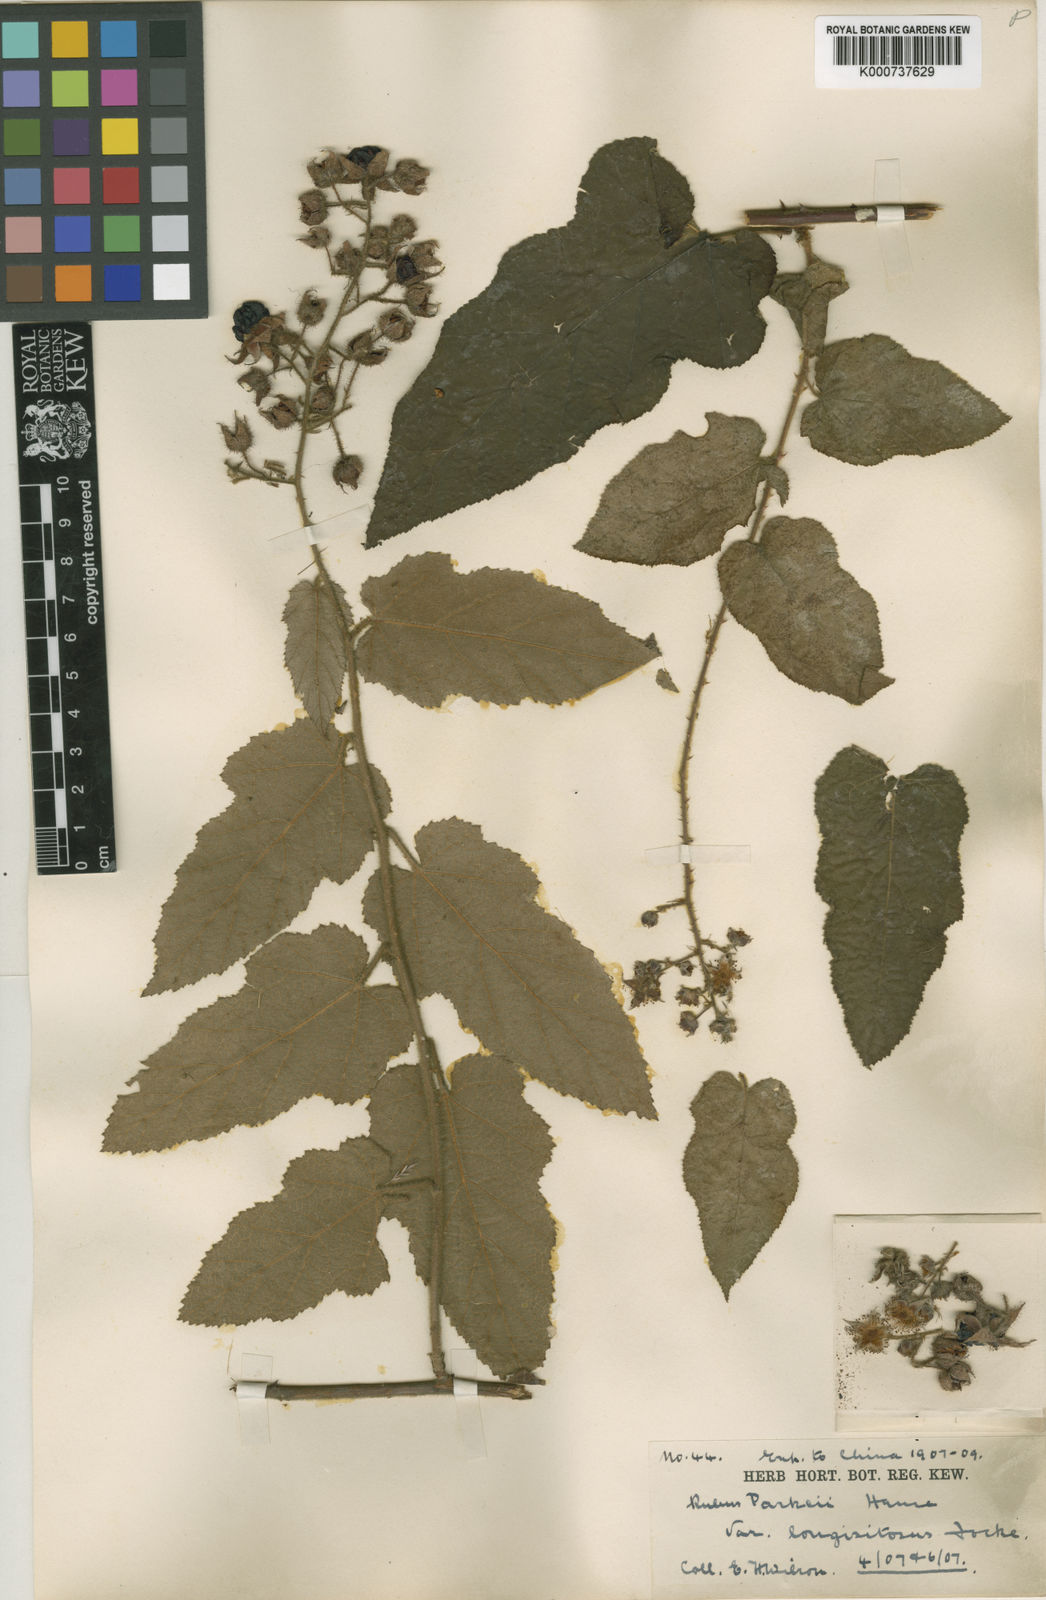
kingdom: Plantae
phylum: Tracheophyta
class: Magnoliopsida
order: Rosales
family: Rosaceae
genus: Rubus
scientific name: Rubus parkeri
